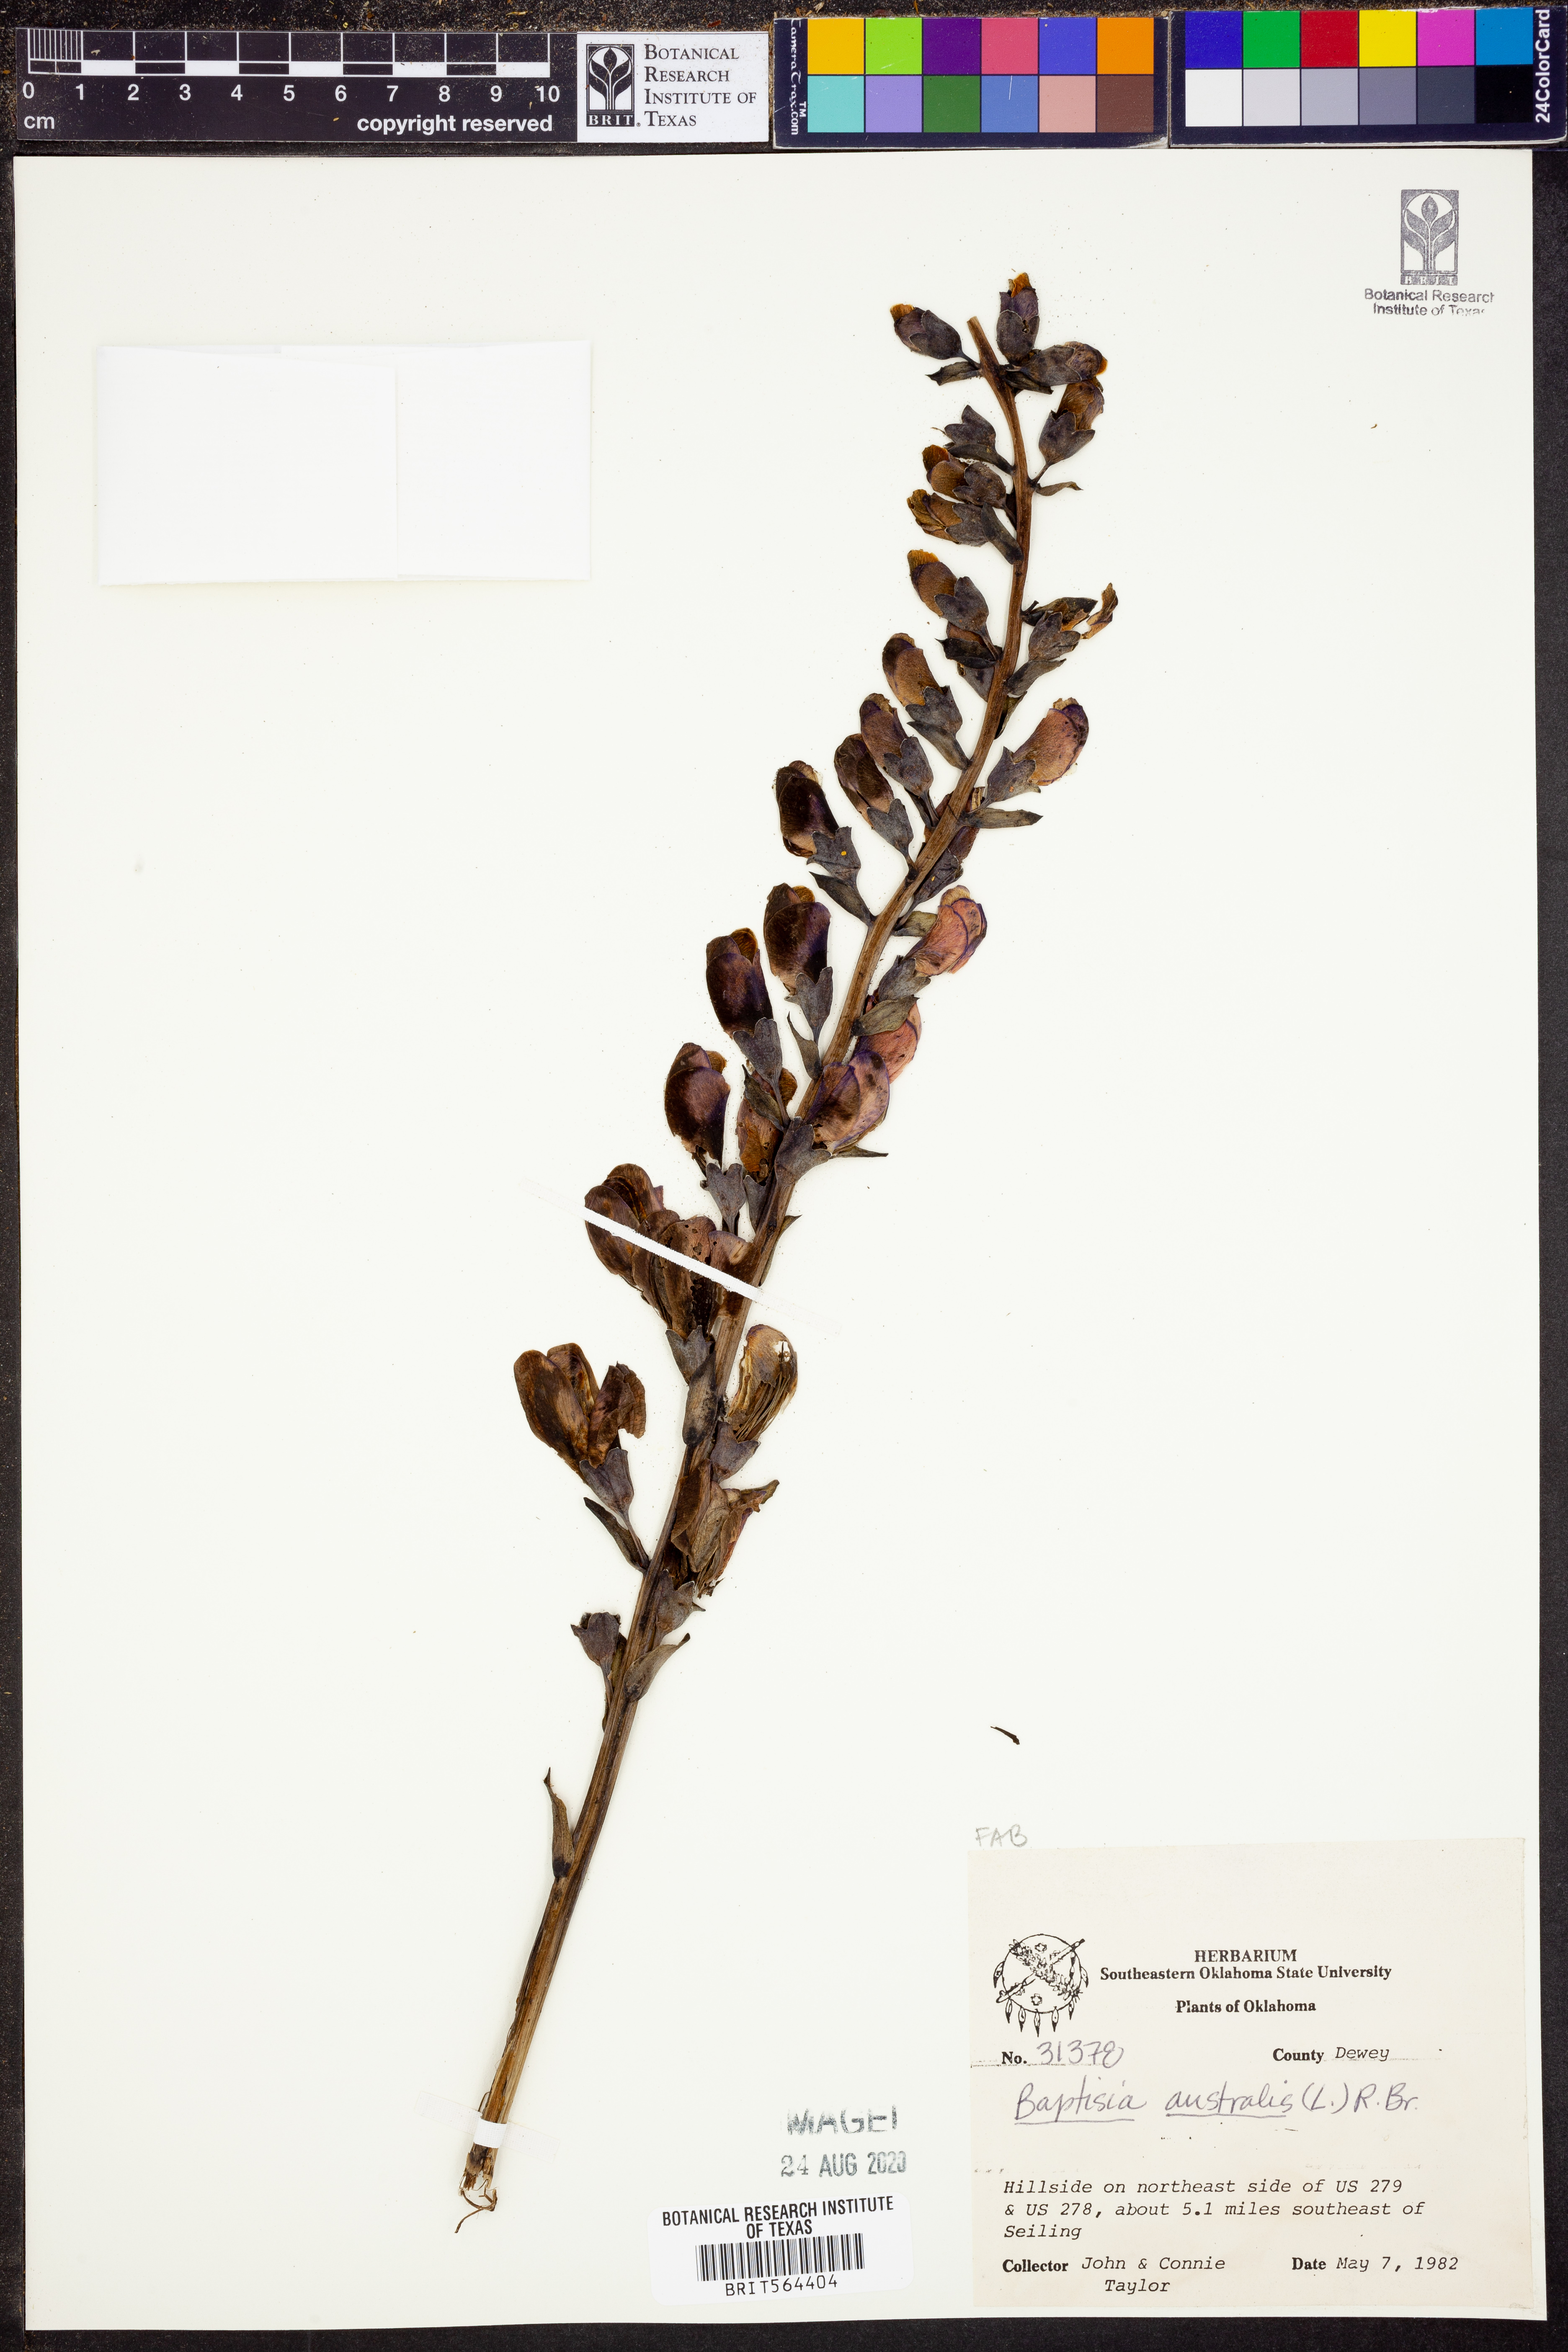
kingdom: Plantae
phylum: Tracheophyta
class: Magnoliopsida
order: Fabales
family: Fabaceae
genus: Baptisia
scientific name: Baptisia australis
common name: Blue false indigo
